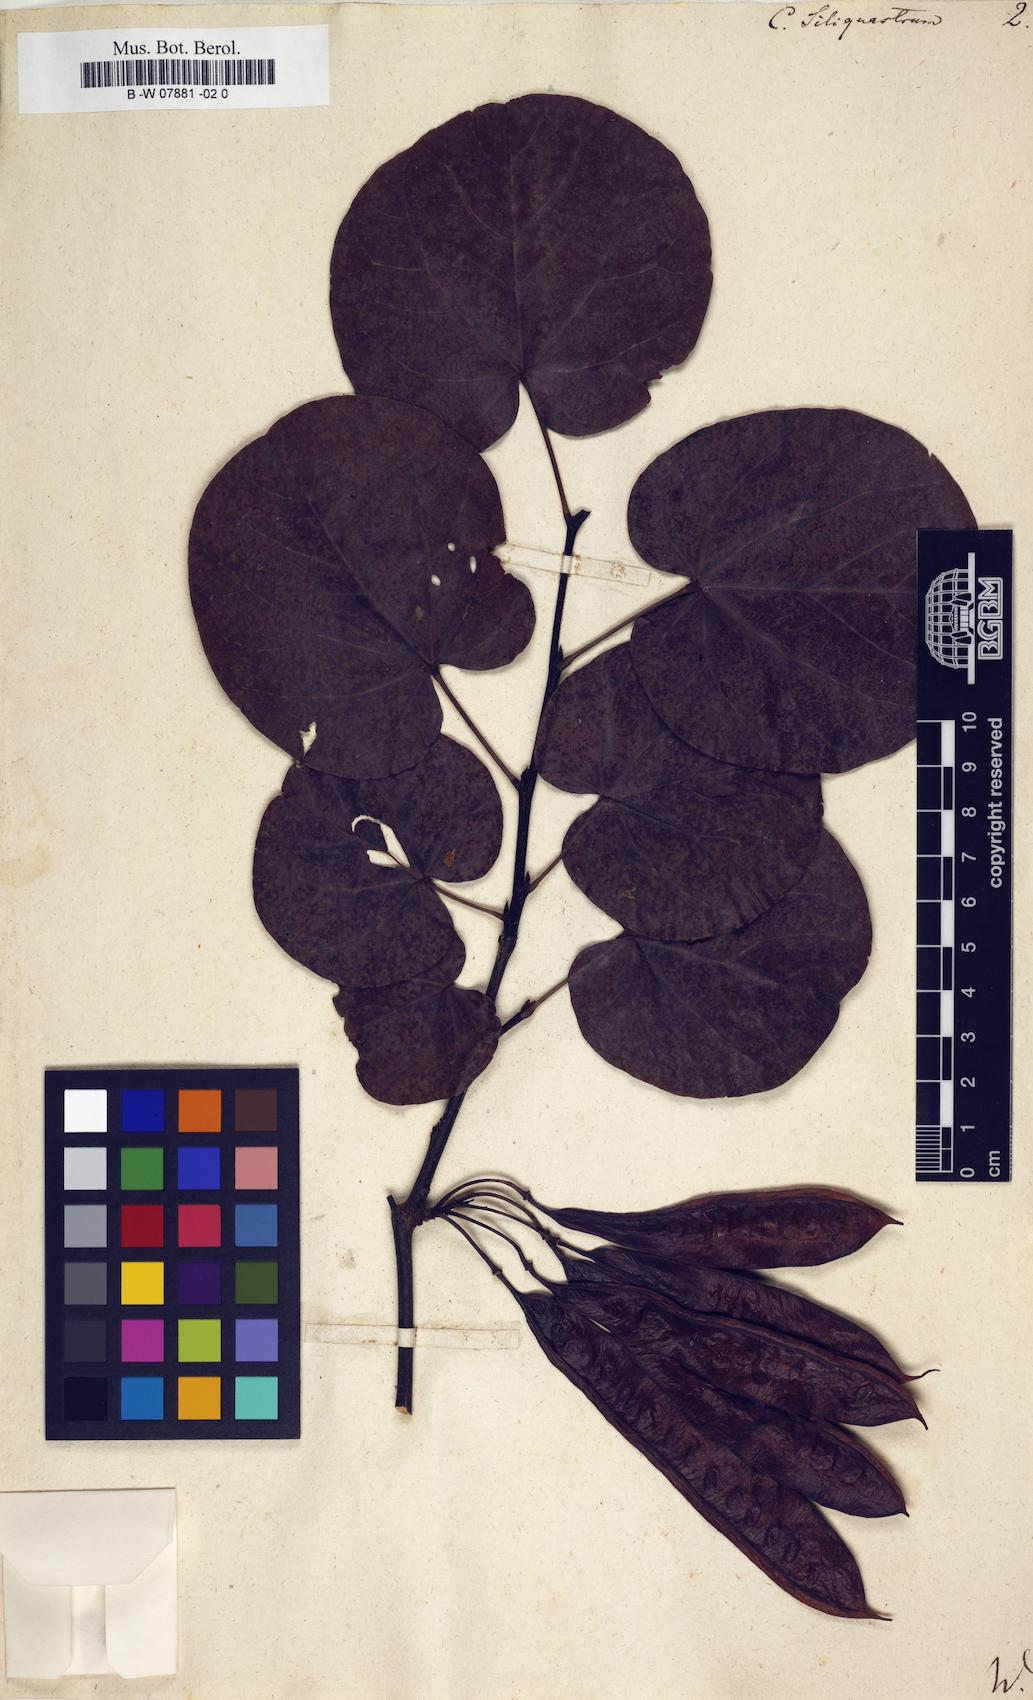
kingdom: Plantae
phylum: Tracheophyta
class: Magnoliopsida
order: Fabales
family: Fabaceae
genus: Cercis
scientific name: Cercis siliquastrum
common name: Judas tree
